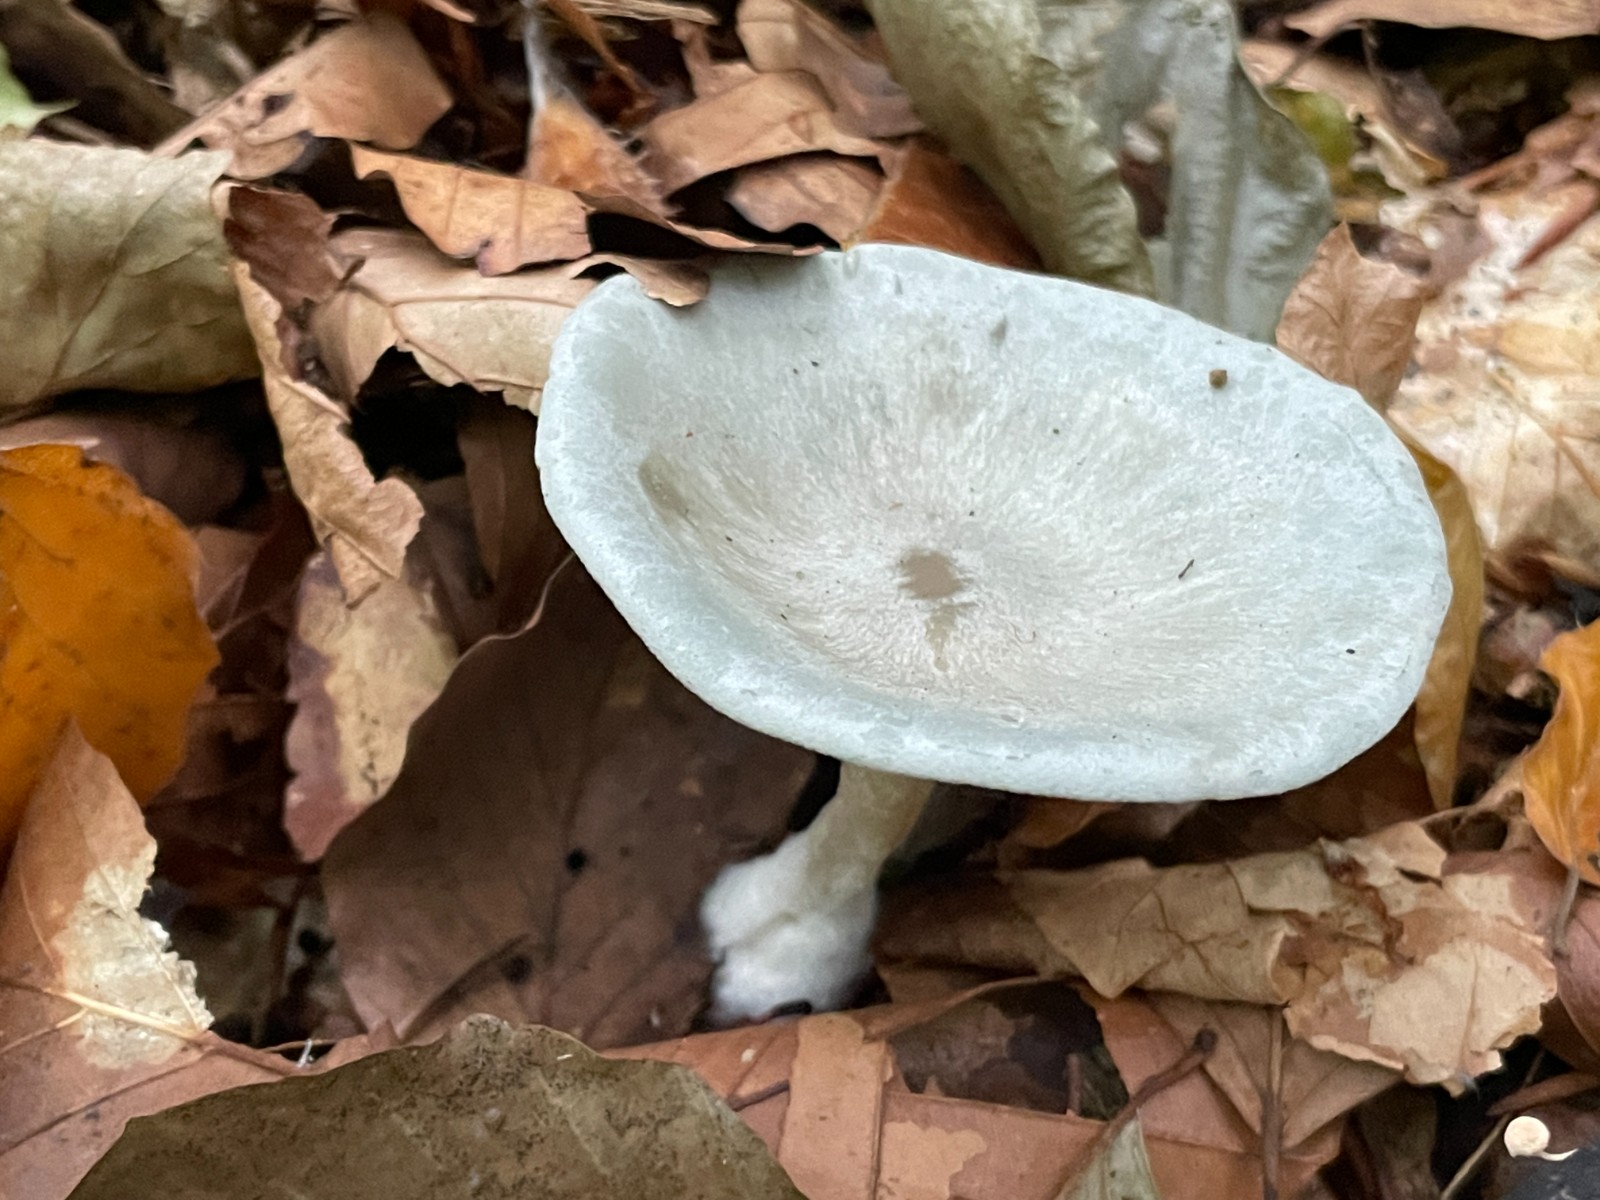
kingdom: Fungi
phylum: Basidiomycota
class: Agaricomycetes
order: Agaricales
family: Tricholomataceae
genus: Clitocybe
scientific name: Clitocybe odora
